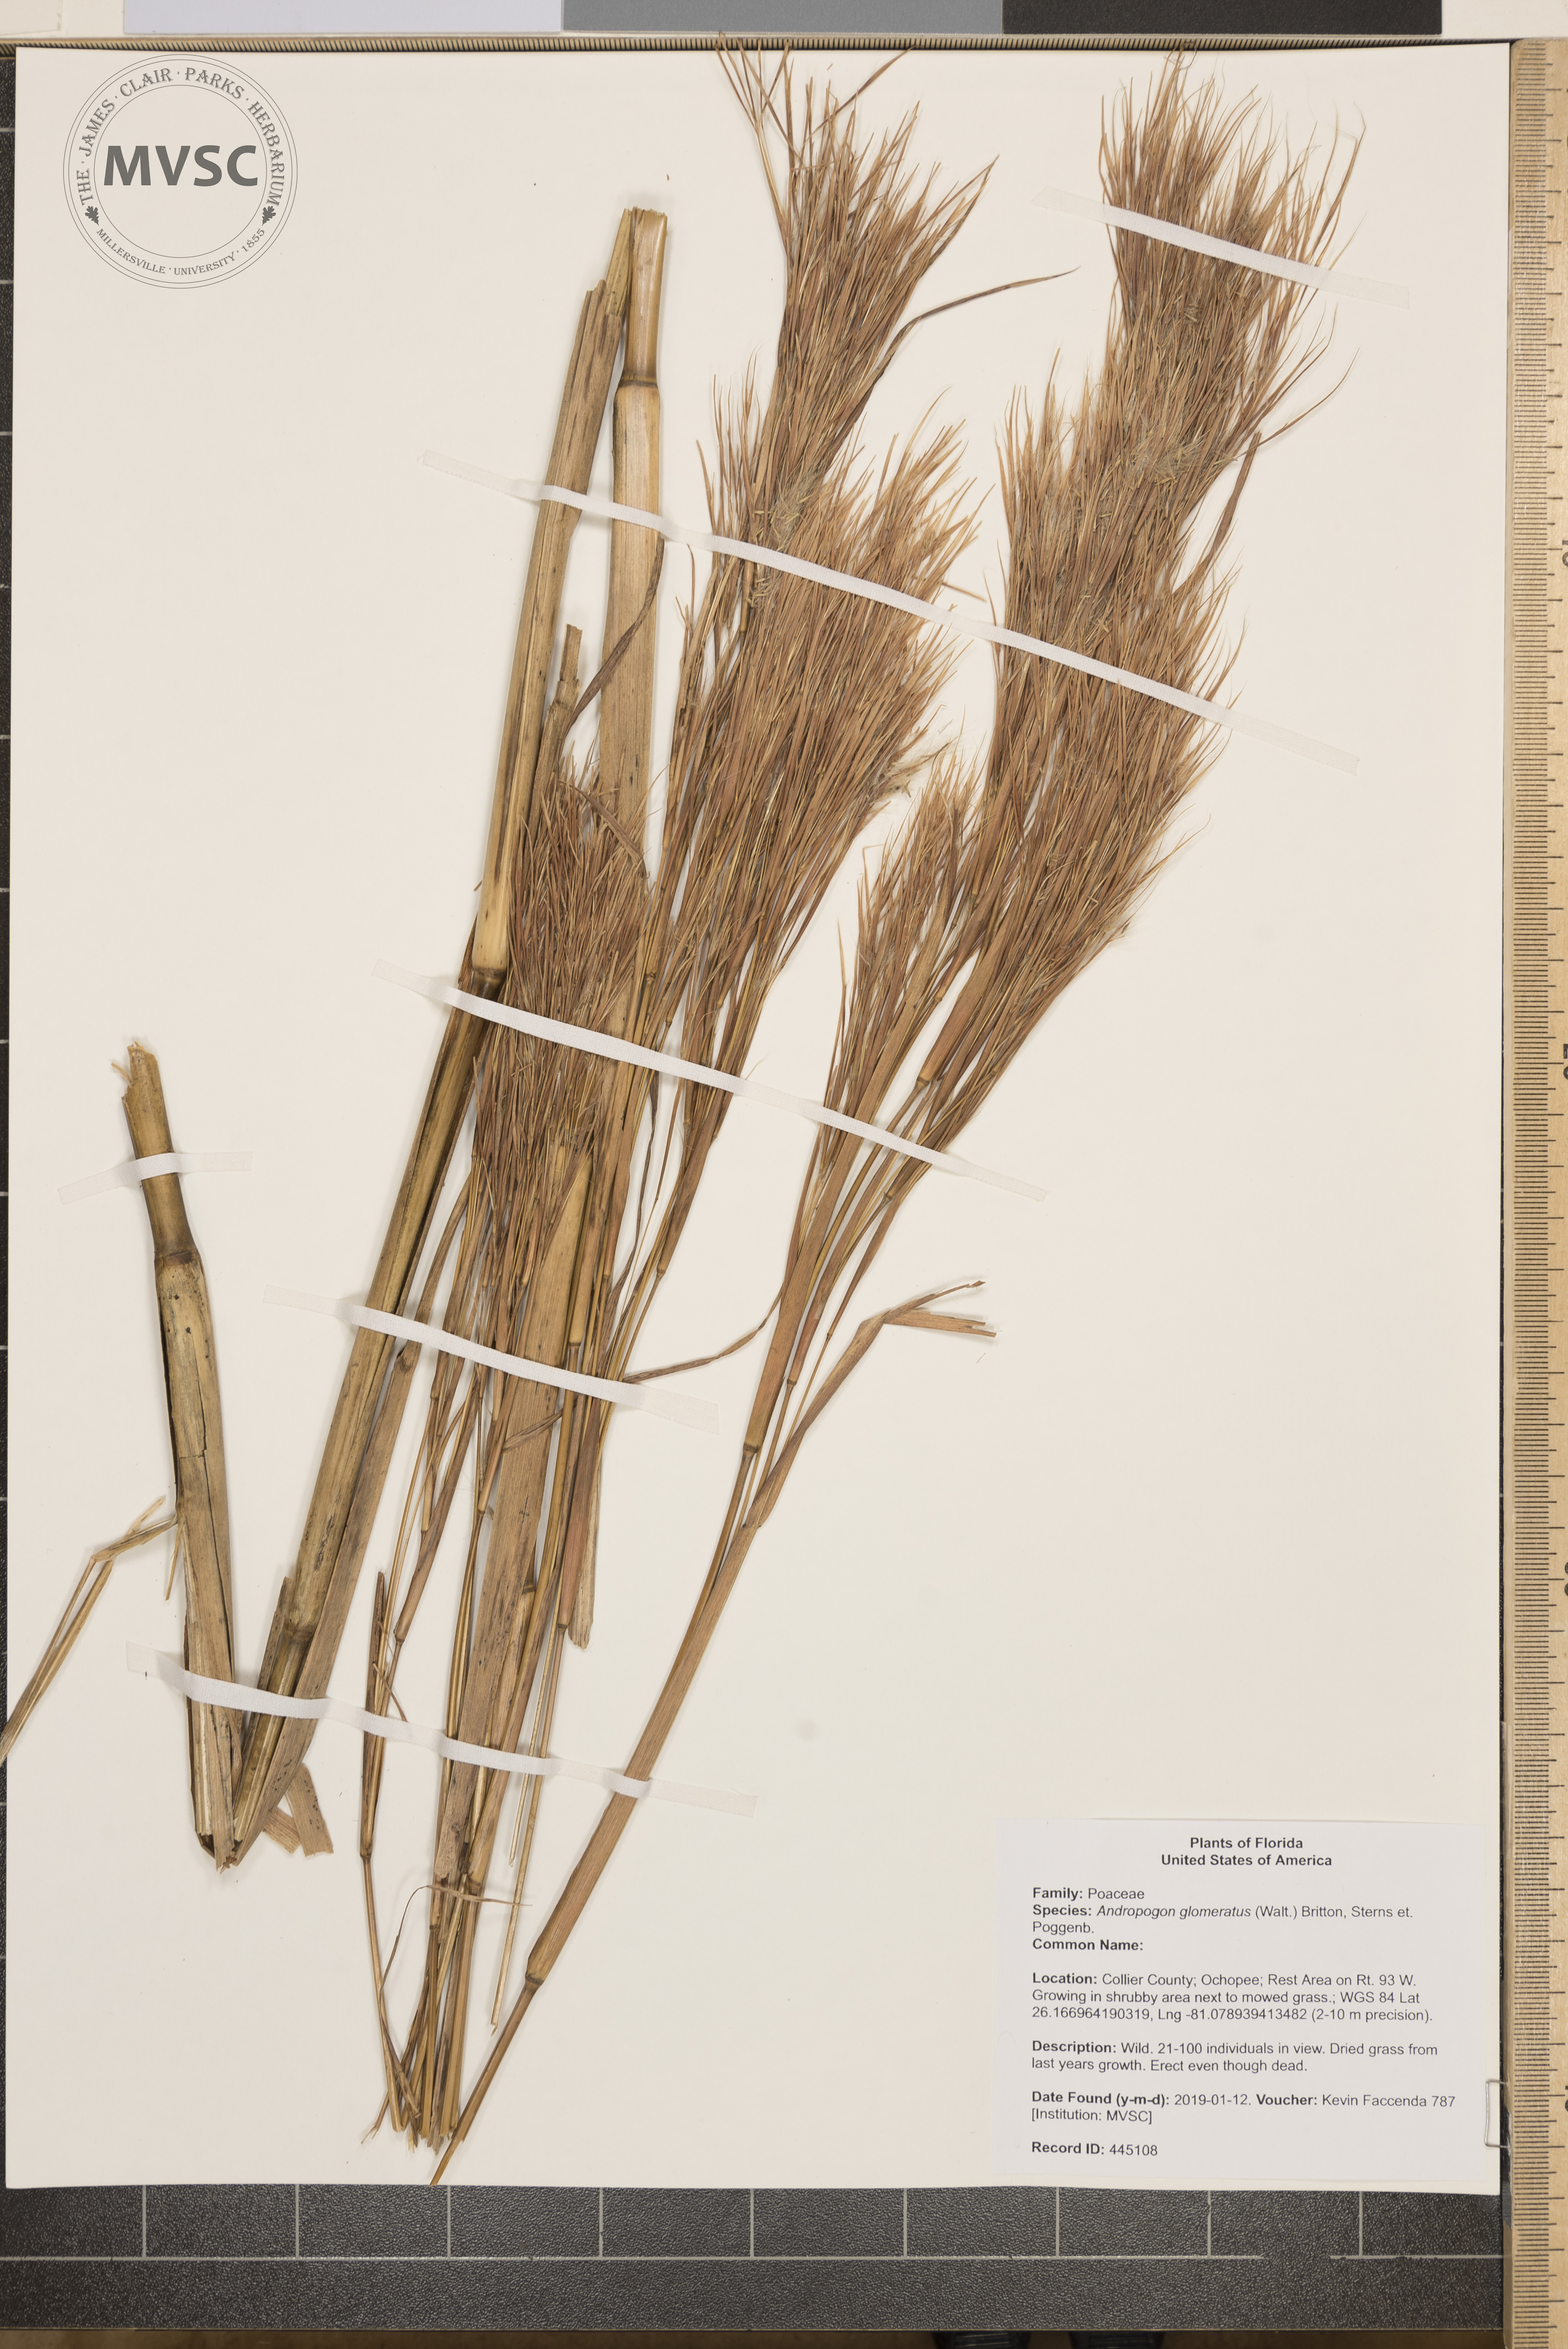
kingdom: Plantae
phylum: Tracheophyta
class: Liliopsida
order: Poales
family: Poaceae
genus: Andropogon
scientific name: Andropogon glomeratus
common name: Bushy beard grass
